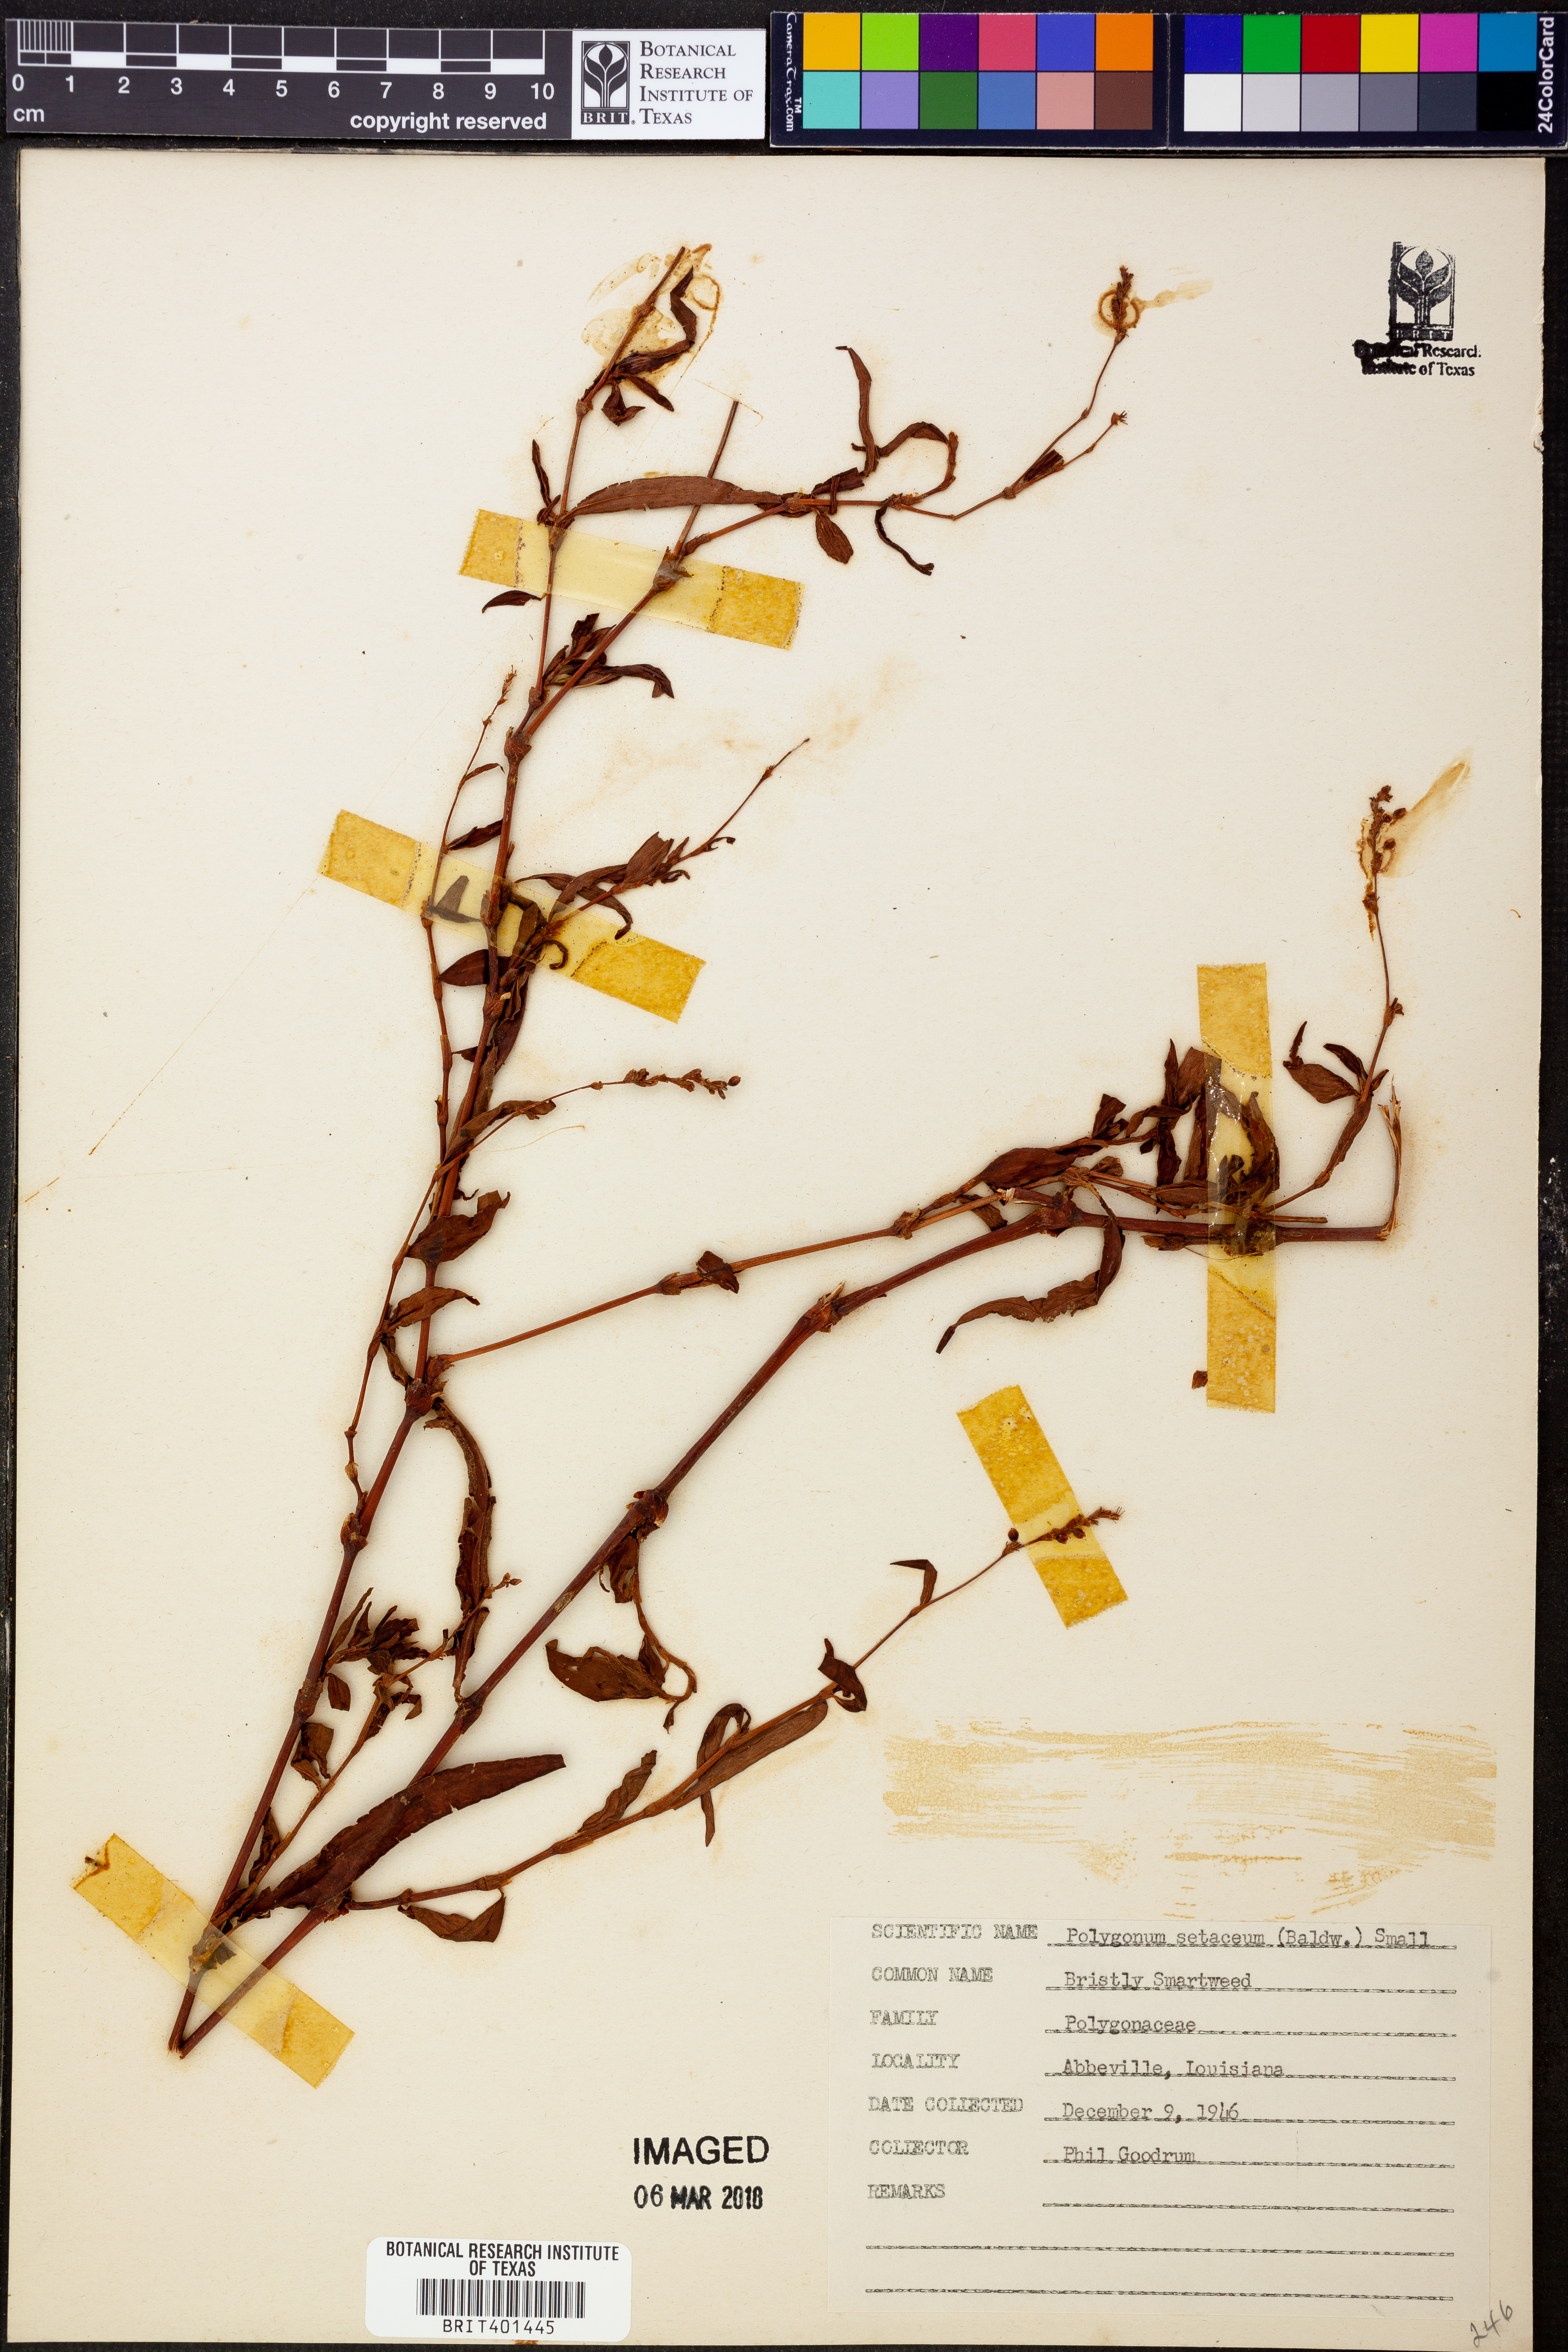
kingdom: Plantae
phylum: Tracheophyta
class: Magnoliopsida
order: Caryophyllales
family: Polygonaceae
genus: Persicaria
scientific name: Persicaria setacea
